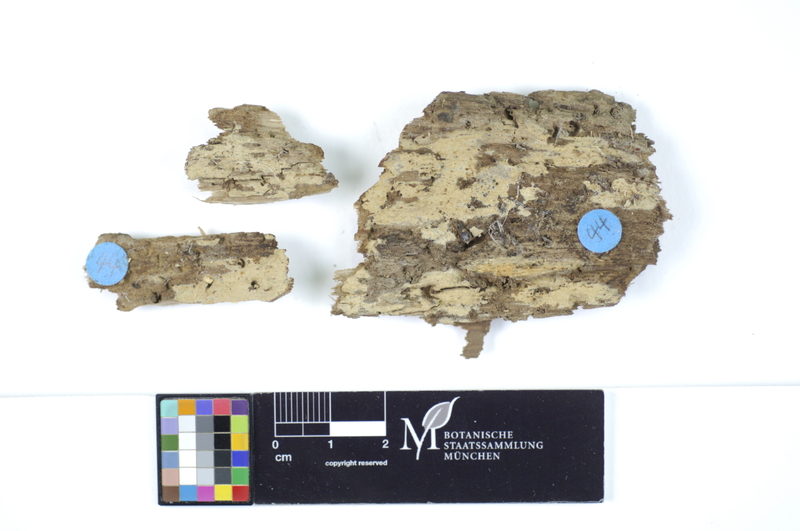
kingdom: Fungi
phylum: Basidiomycota
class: Agaricomycetes
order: Polyporales
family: Hyphodermataceae
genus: Hyphoderma
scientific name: Hyphoderma medioburiense
